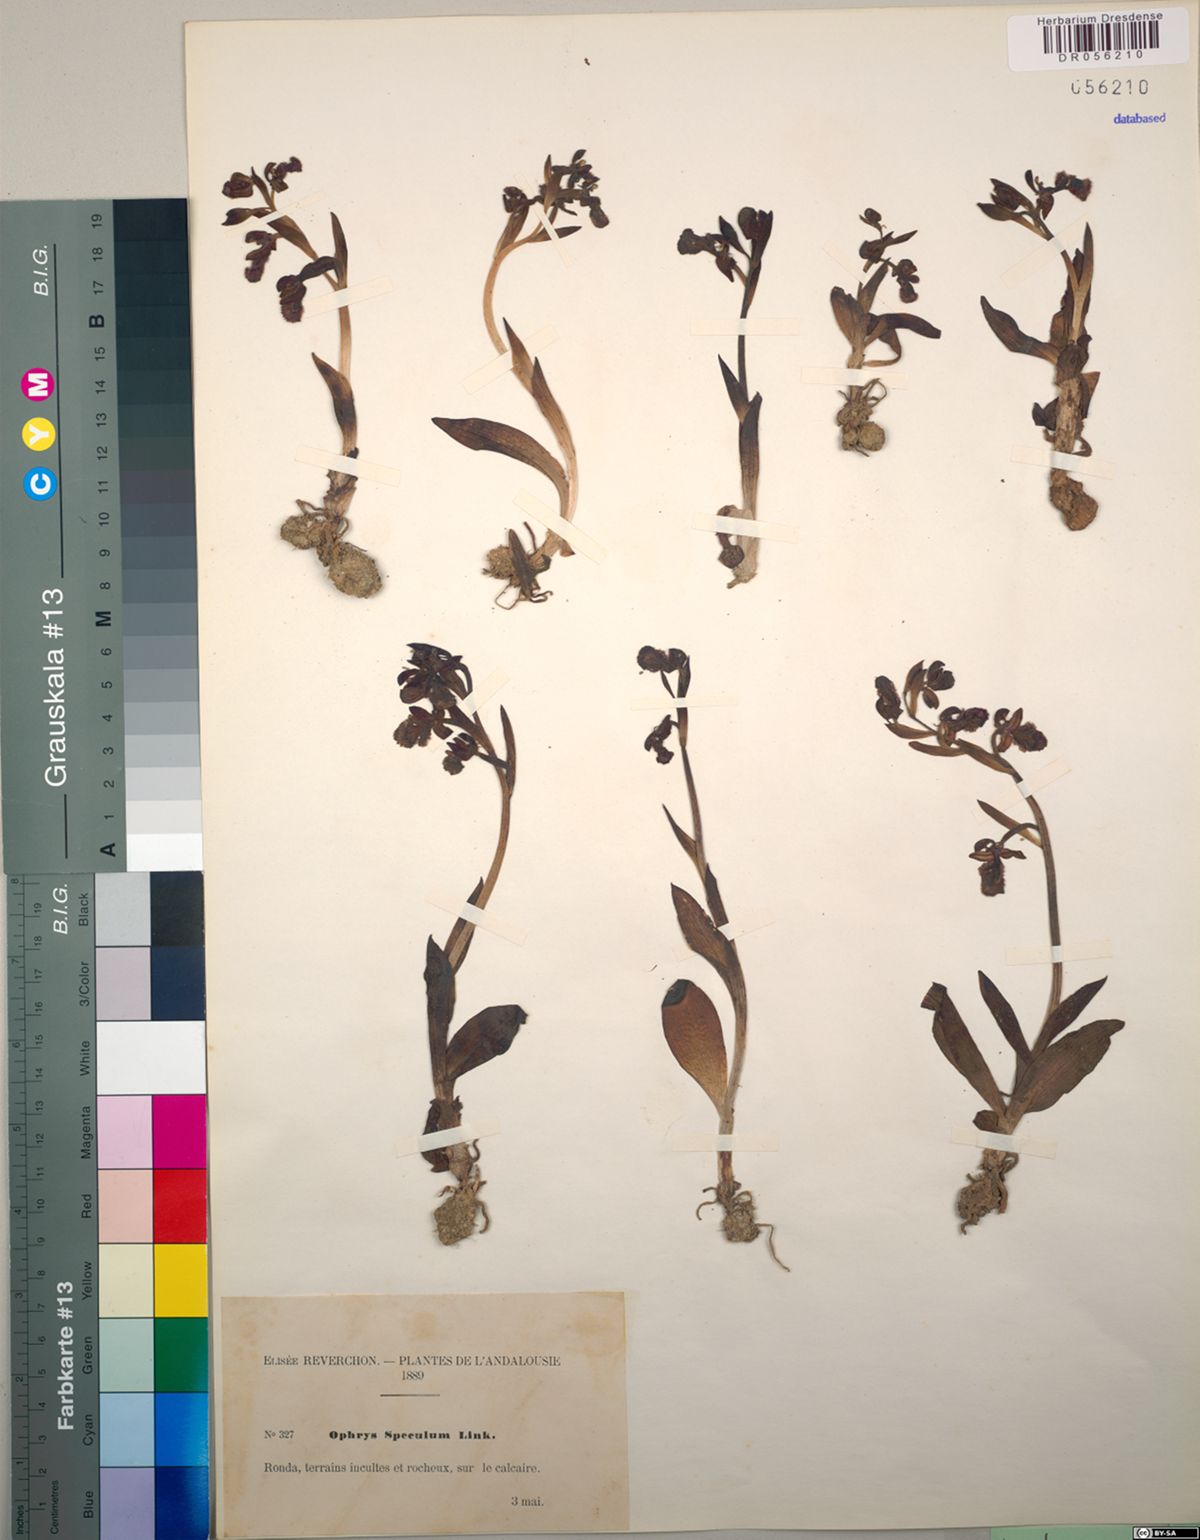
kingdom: Plantae
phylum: Tracheophyta
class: Liliopsida
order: Asparagales
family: Orchidaceae
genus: Ophrys
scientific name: Ophrys speculum
